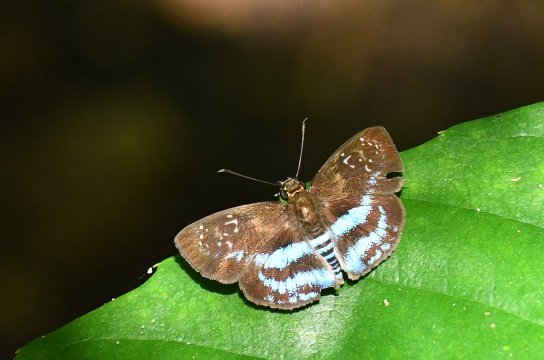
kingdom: Animalia
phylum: Arthropoda
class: Insecta
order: Lepidoptera
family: Hesperiidae
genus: Quadrus
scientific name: Quadrus contubernalis
